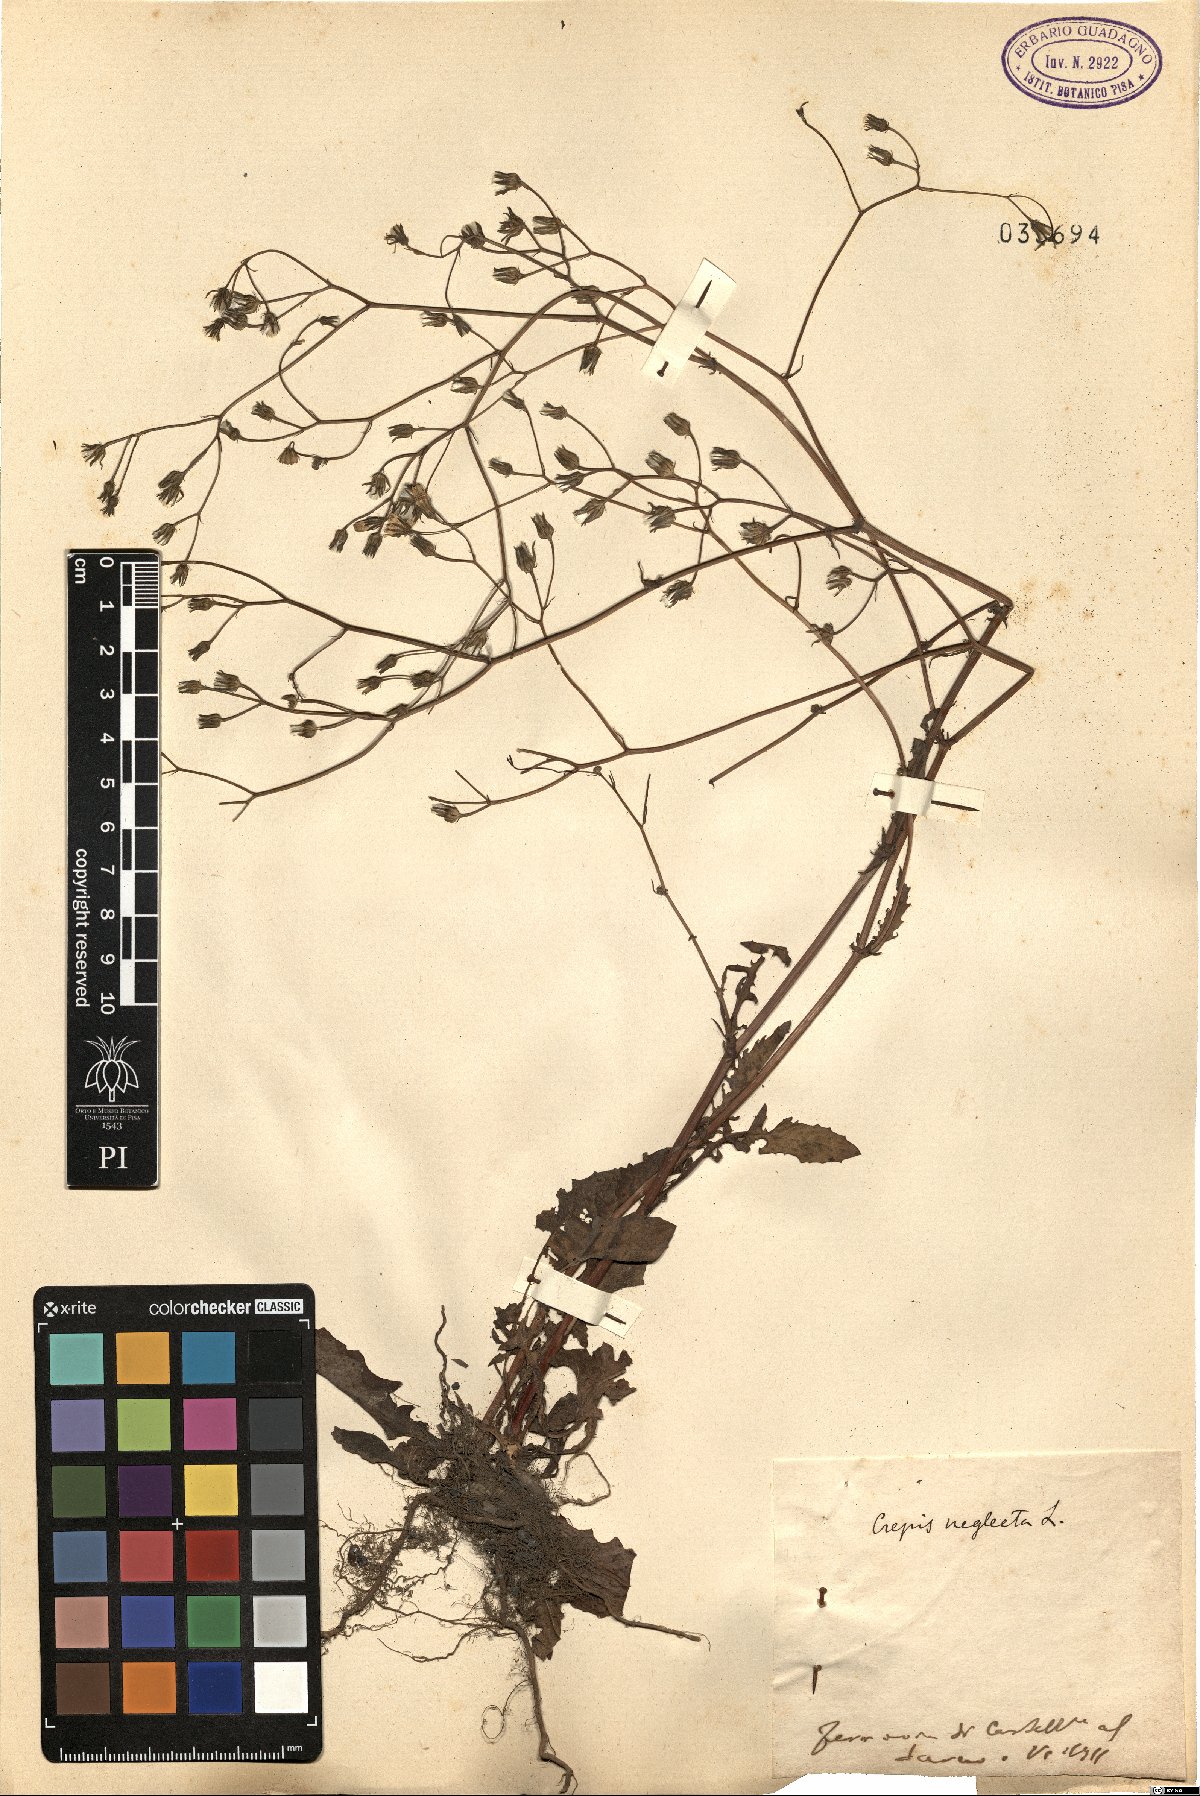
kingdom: Plantae
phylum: Tracheophyta
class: Magnoliopsida
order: Asterales
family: Asteraceae
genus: Crepis
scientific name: Crepis neglecta
